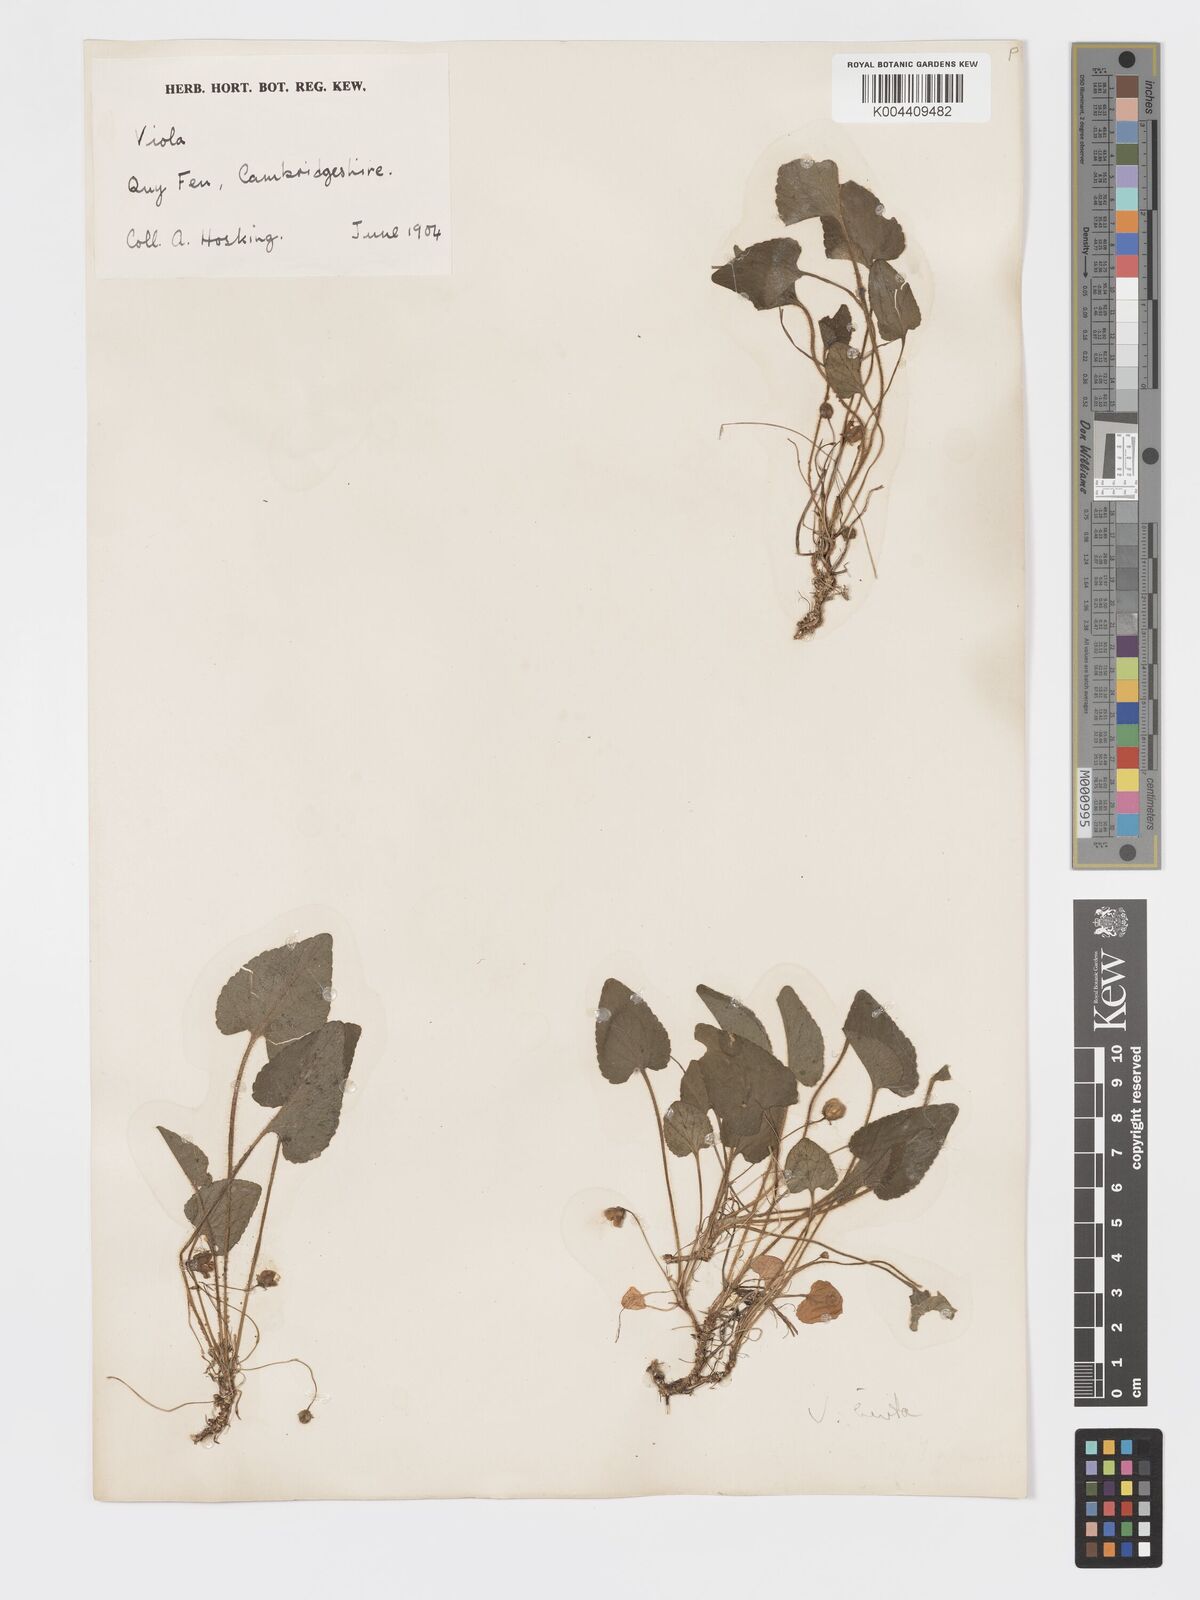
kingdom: Plantae
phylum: Tracheophyta
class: Magnoliopsida
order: Malpighiales
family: Violaceae
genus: Viola
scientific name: Viola
